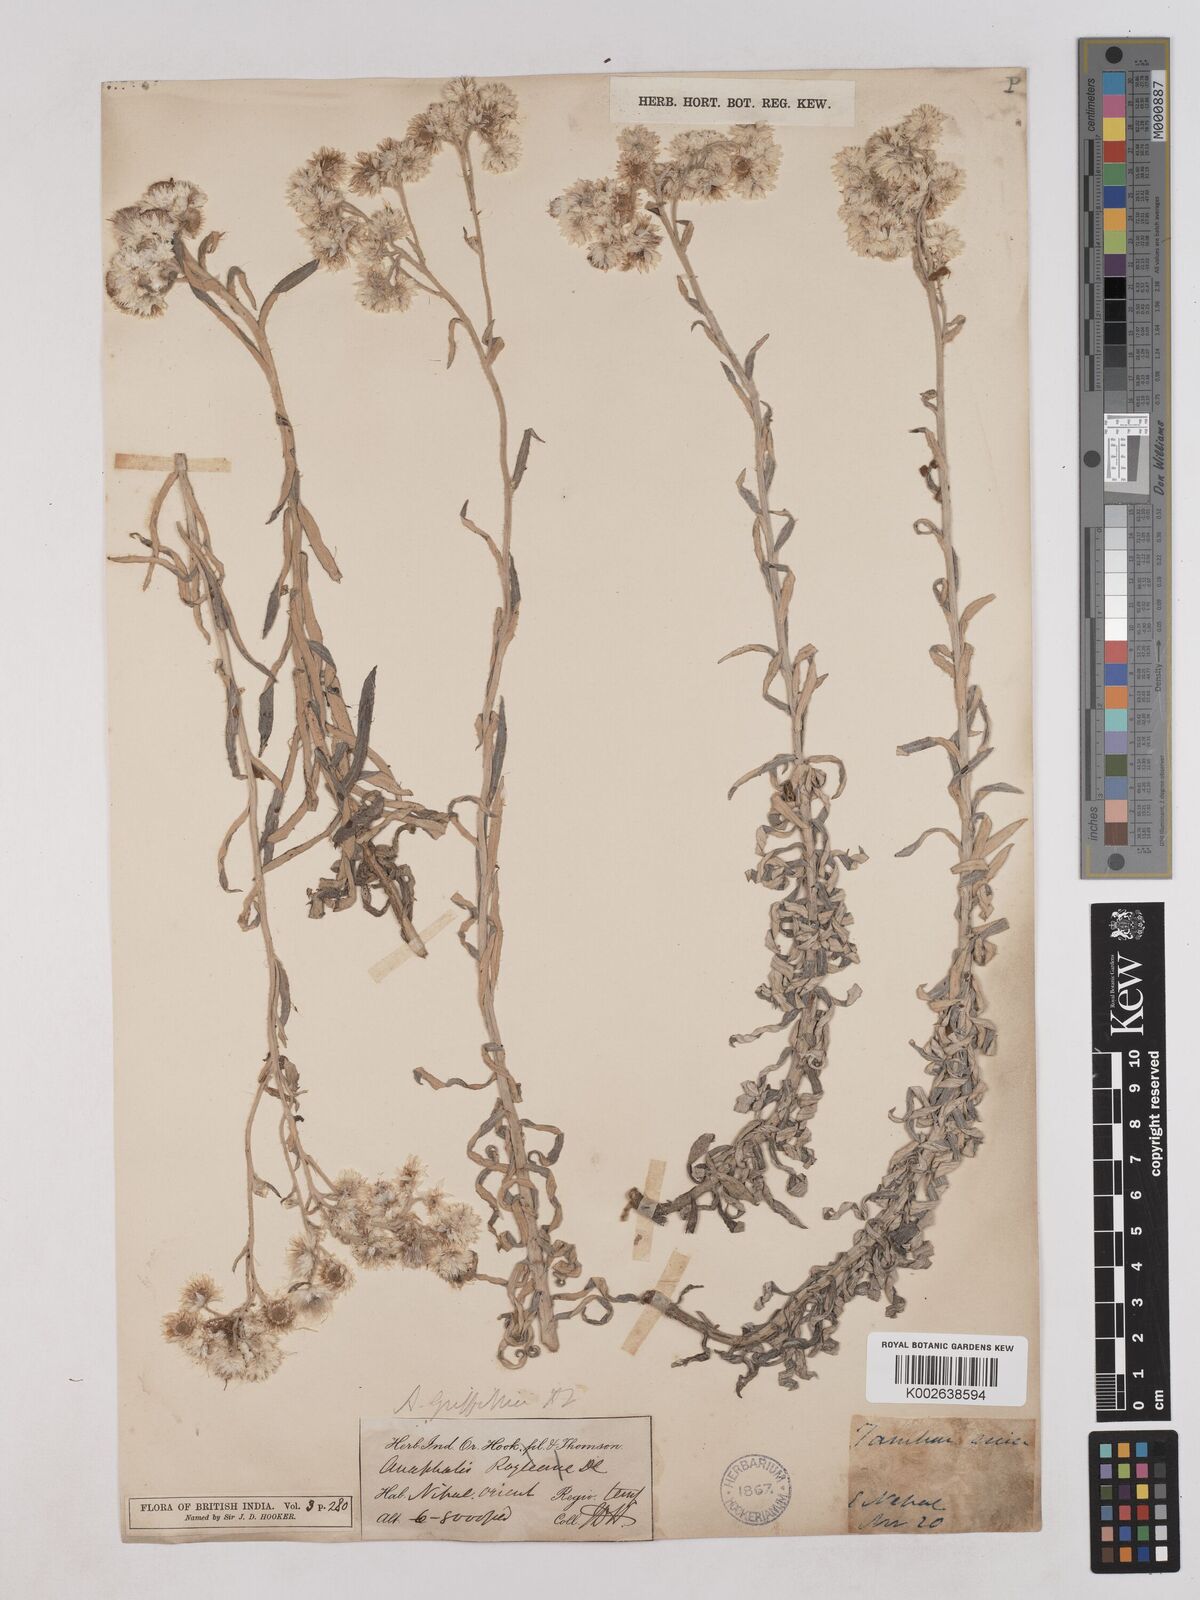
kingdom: Plantae
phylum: Tracheophyta
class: Magnoliopsida
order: Asterales
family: Asteraceae
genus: Anaphalis
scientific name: Anaphalis griffithii
